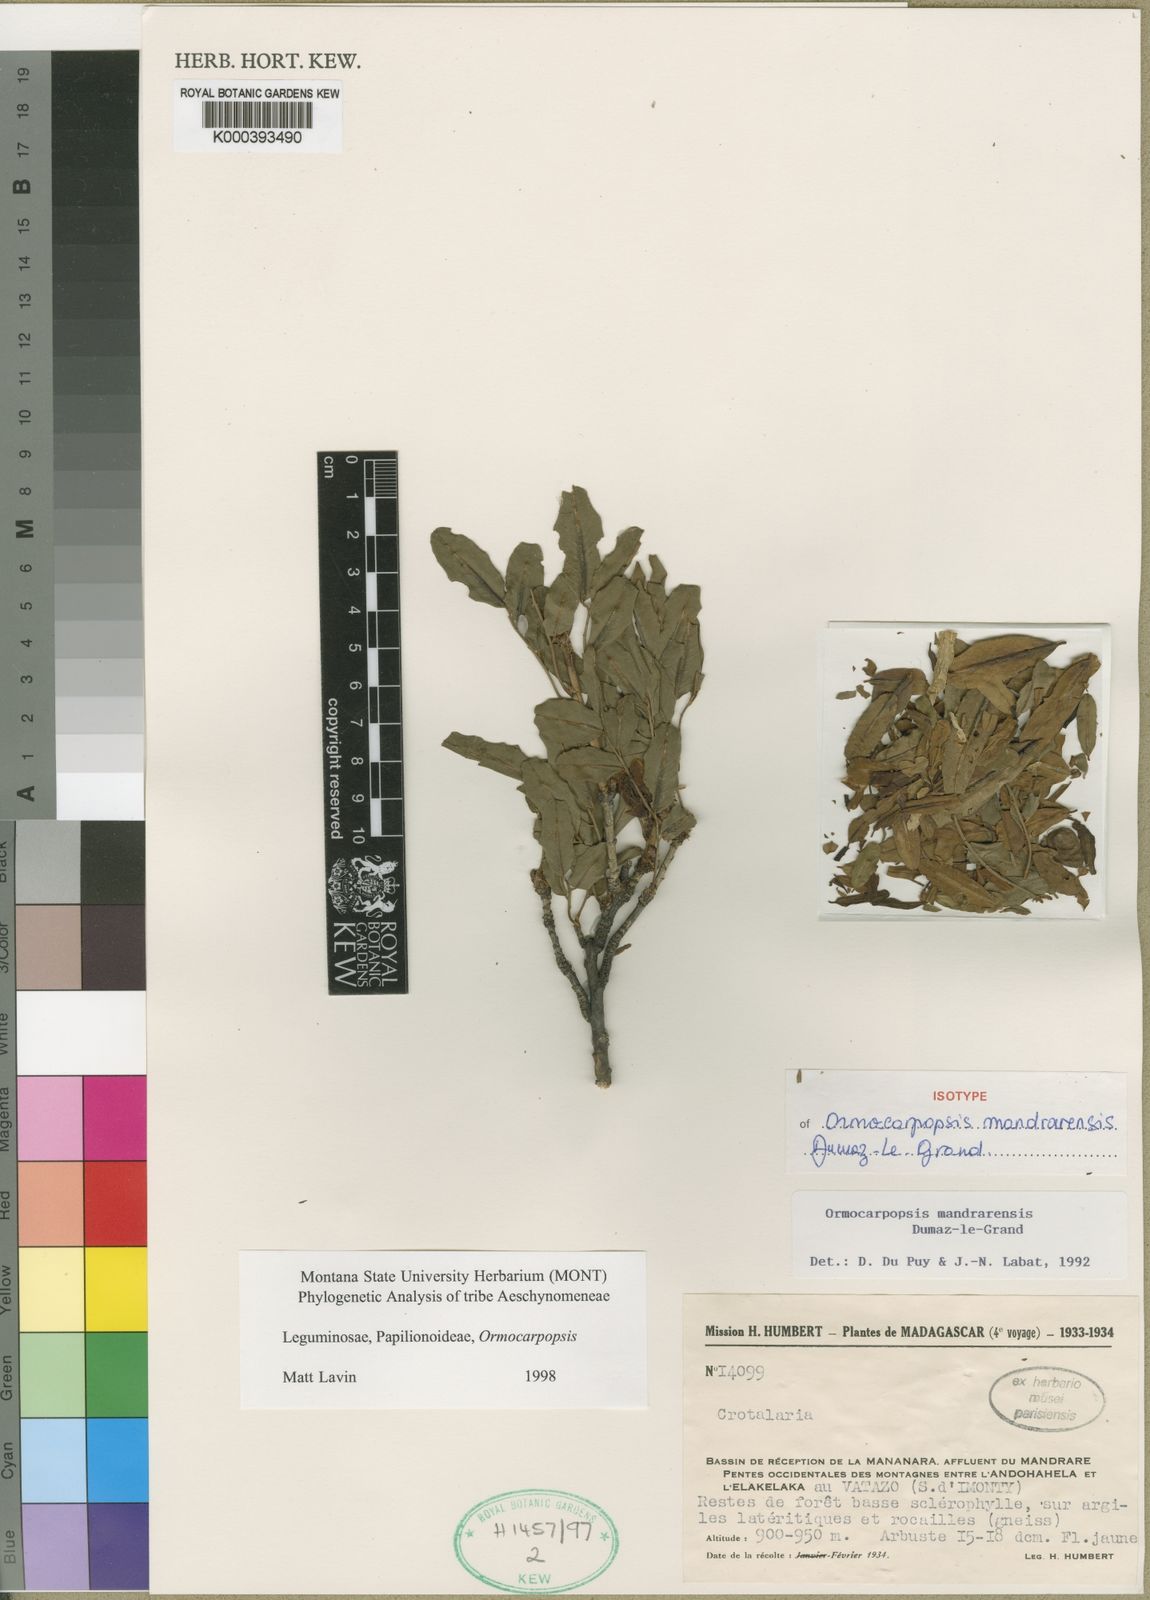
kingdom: Plantae
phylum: Tracheophyta
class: Magnoliopsida
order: Fabales
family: Fabaceae
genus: Ormocarpopsis
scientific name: Ormocarpopsis mandrarensis
